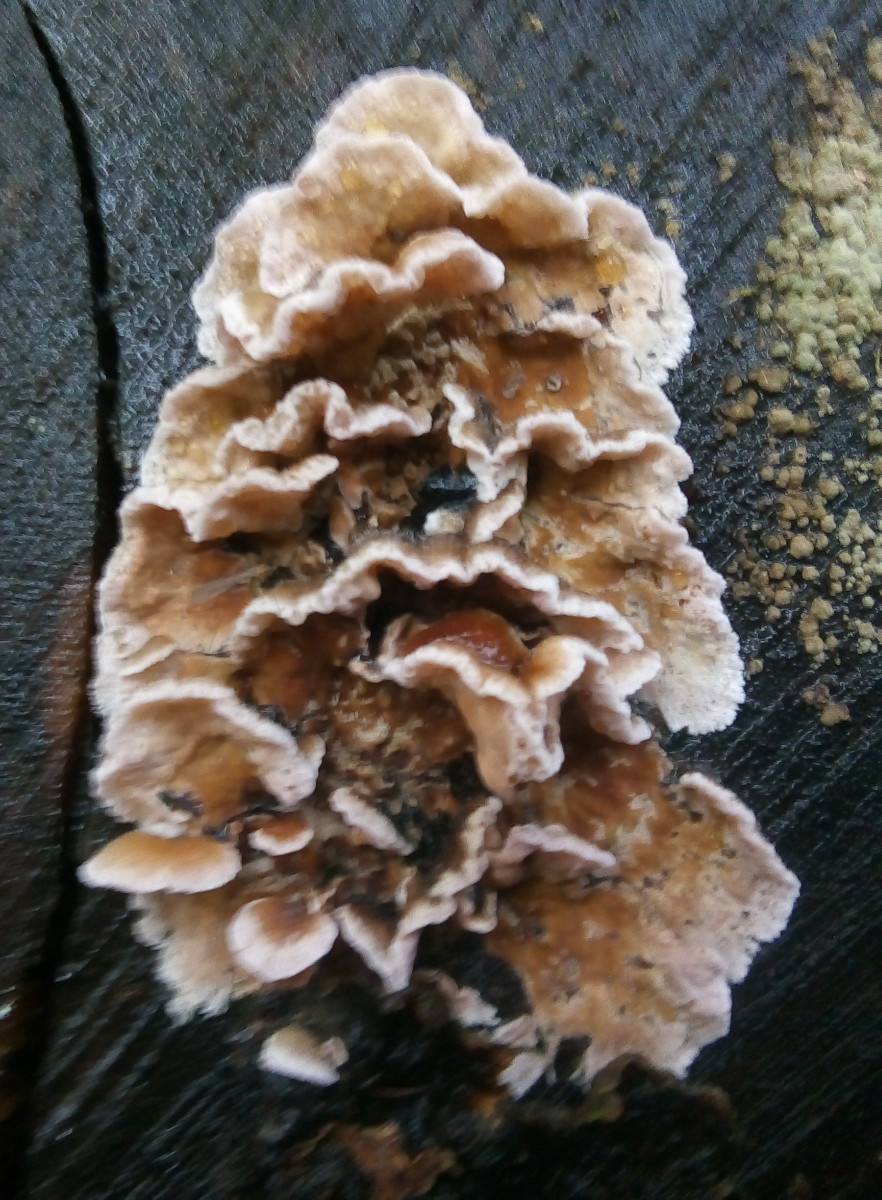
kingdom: Fungi
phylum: Basidiomycota
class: Agaricomycetes
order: Agaricales
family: Cyphellaceae
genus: Chondrostereum
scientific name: Chondrostereum purpureum
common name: purpurlædersvamp
